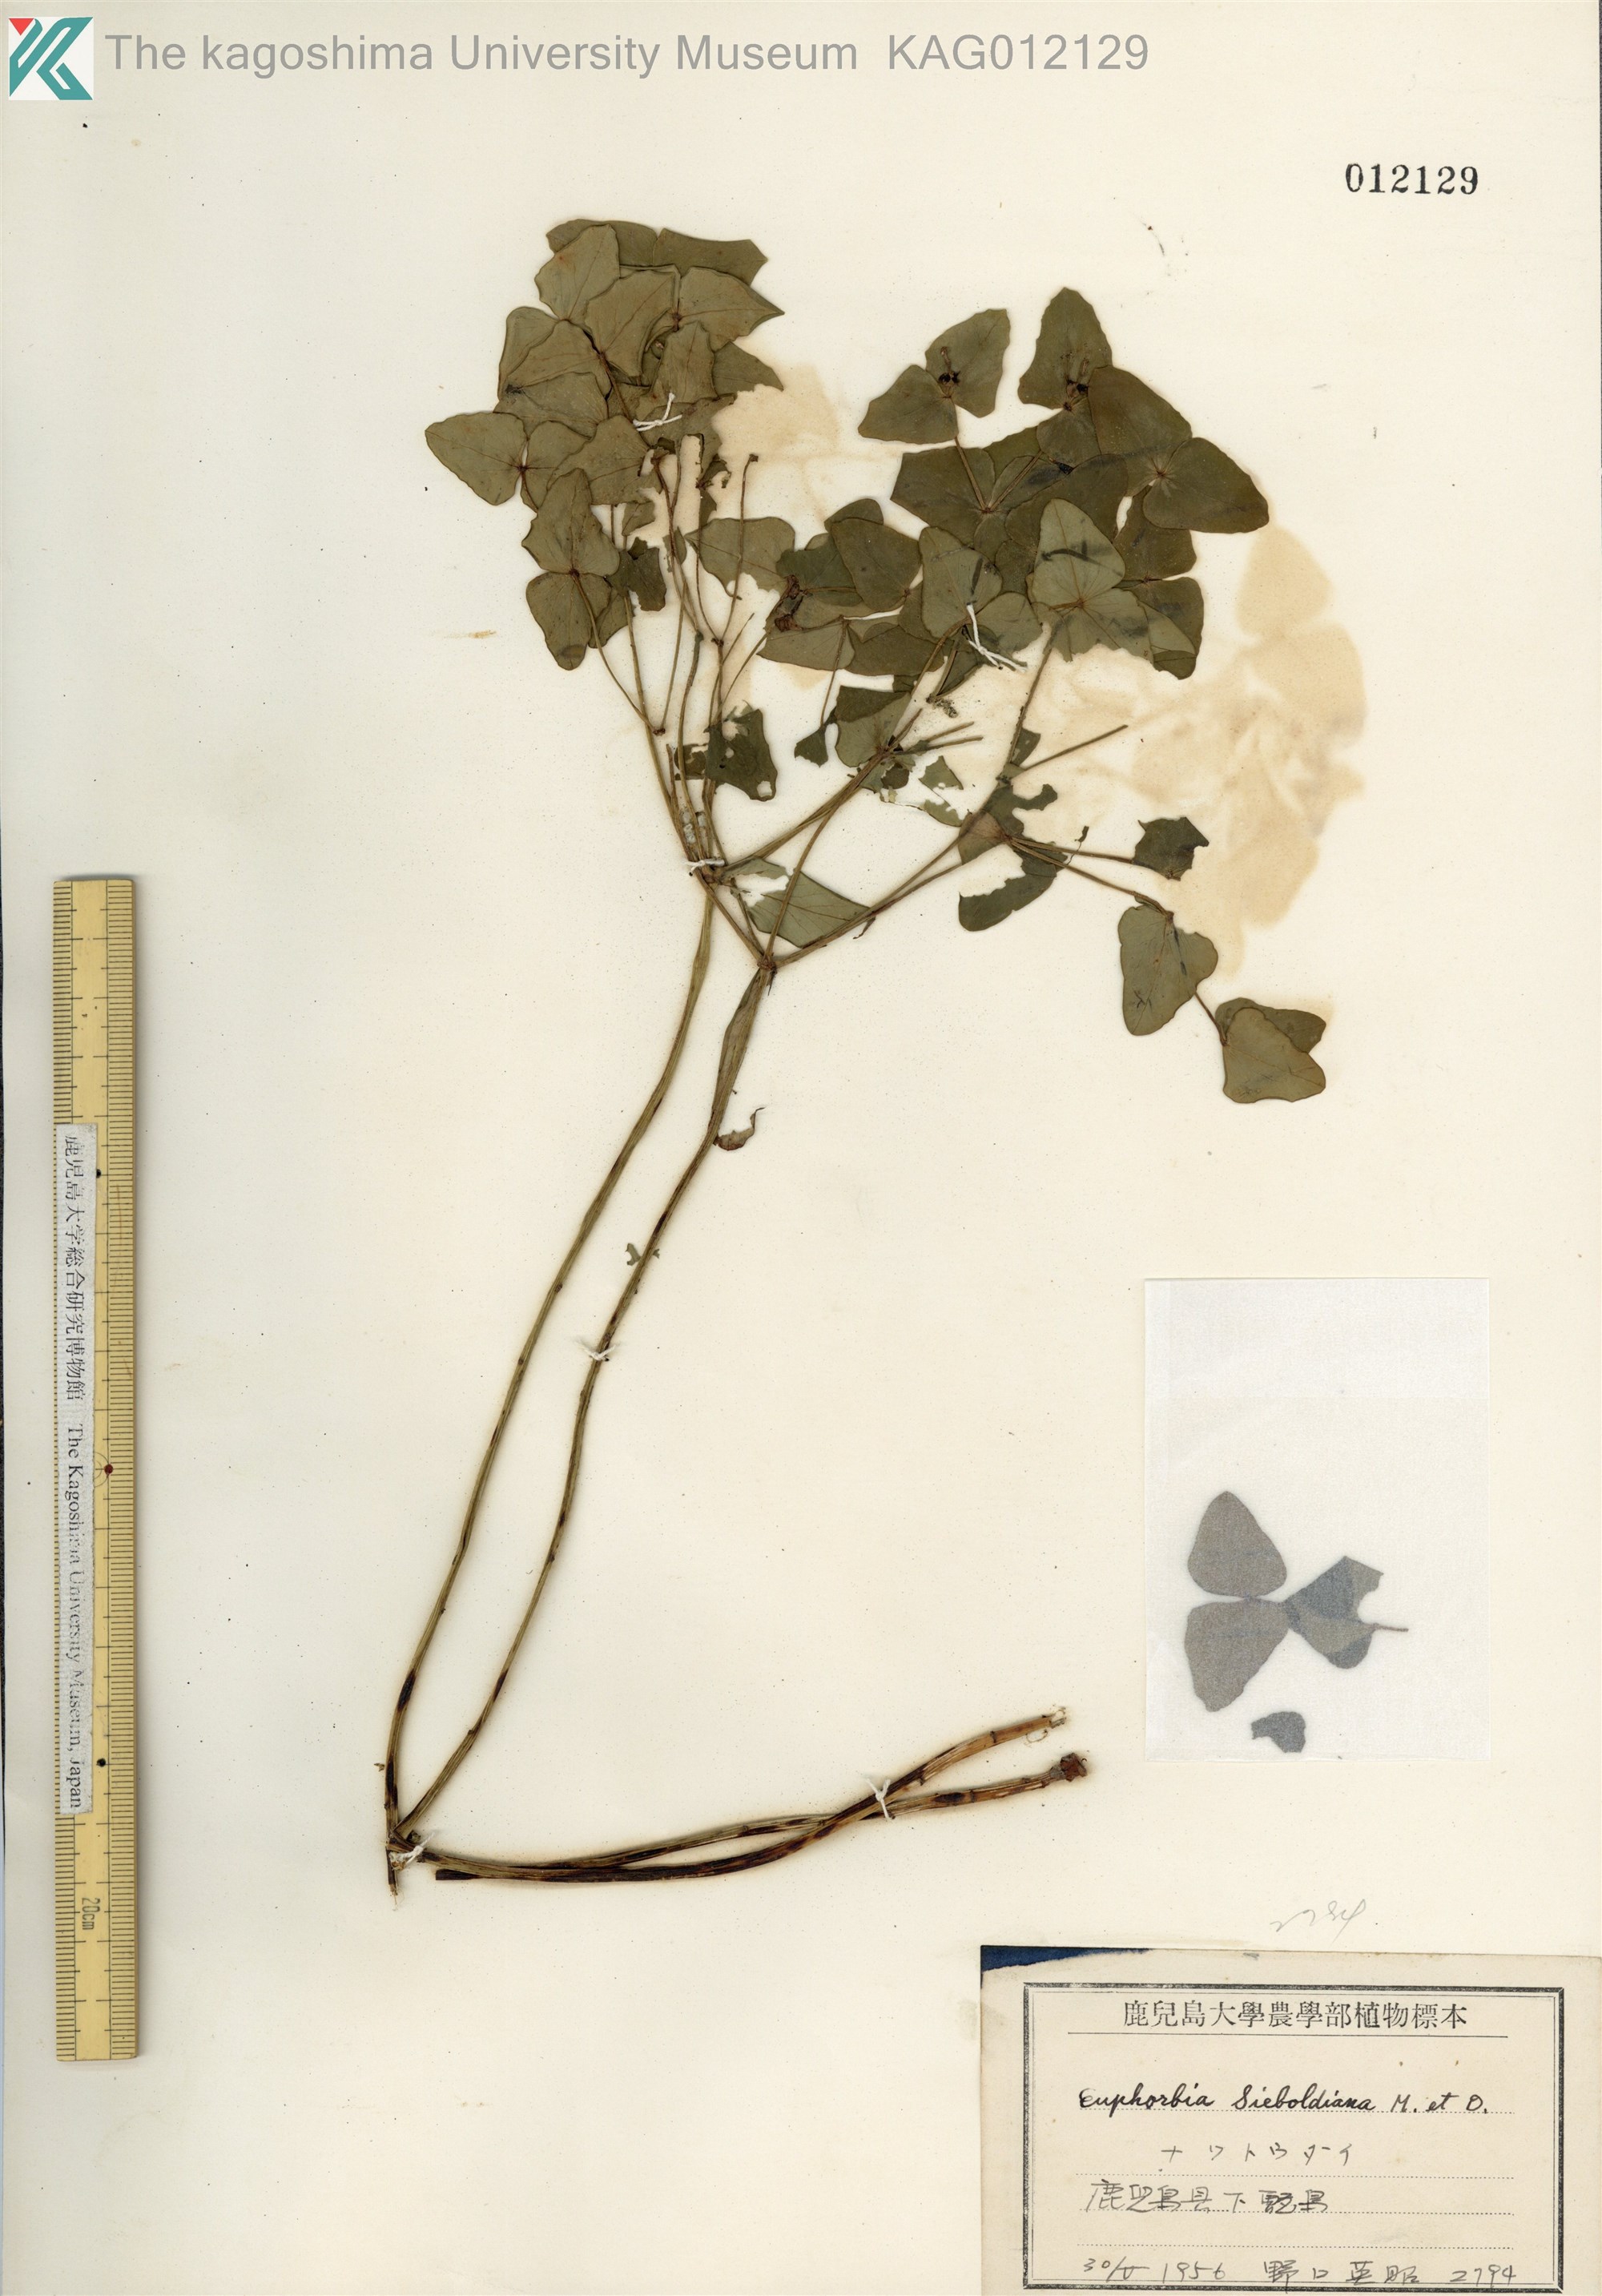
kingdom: Plantae
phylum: Tracheophyta
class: Magnoliopsida
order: Malpighiales
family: Euphorbiaceae
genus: Euphorbia
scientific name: Euphorbia sieboldiana
